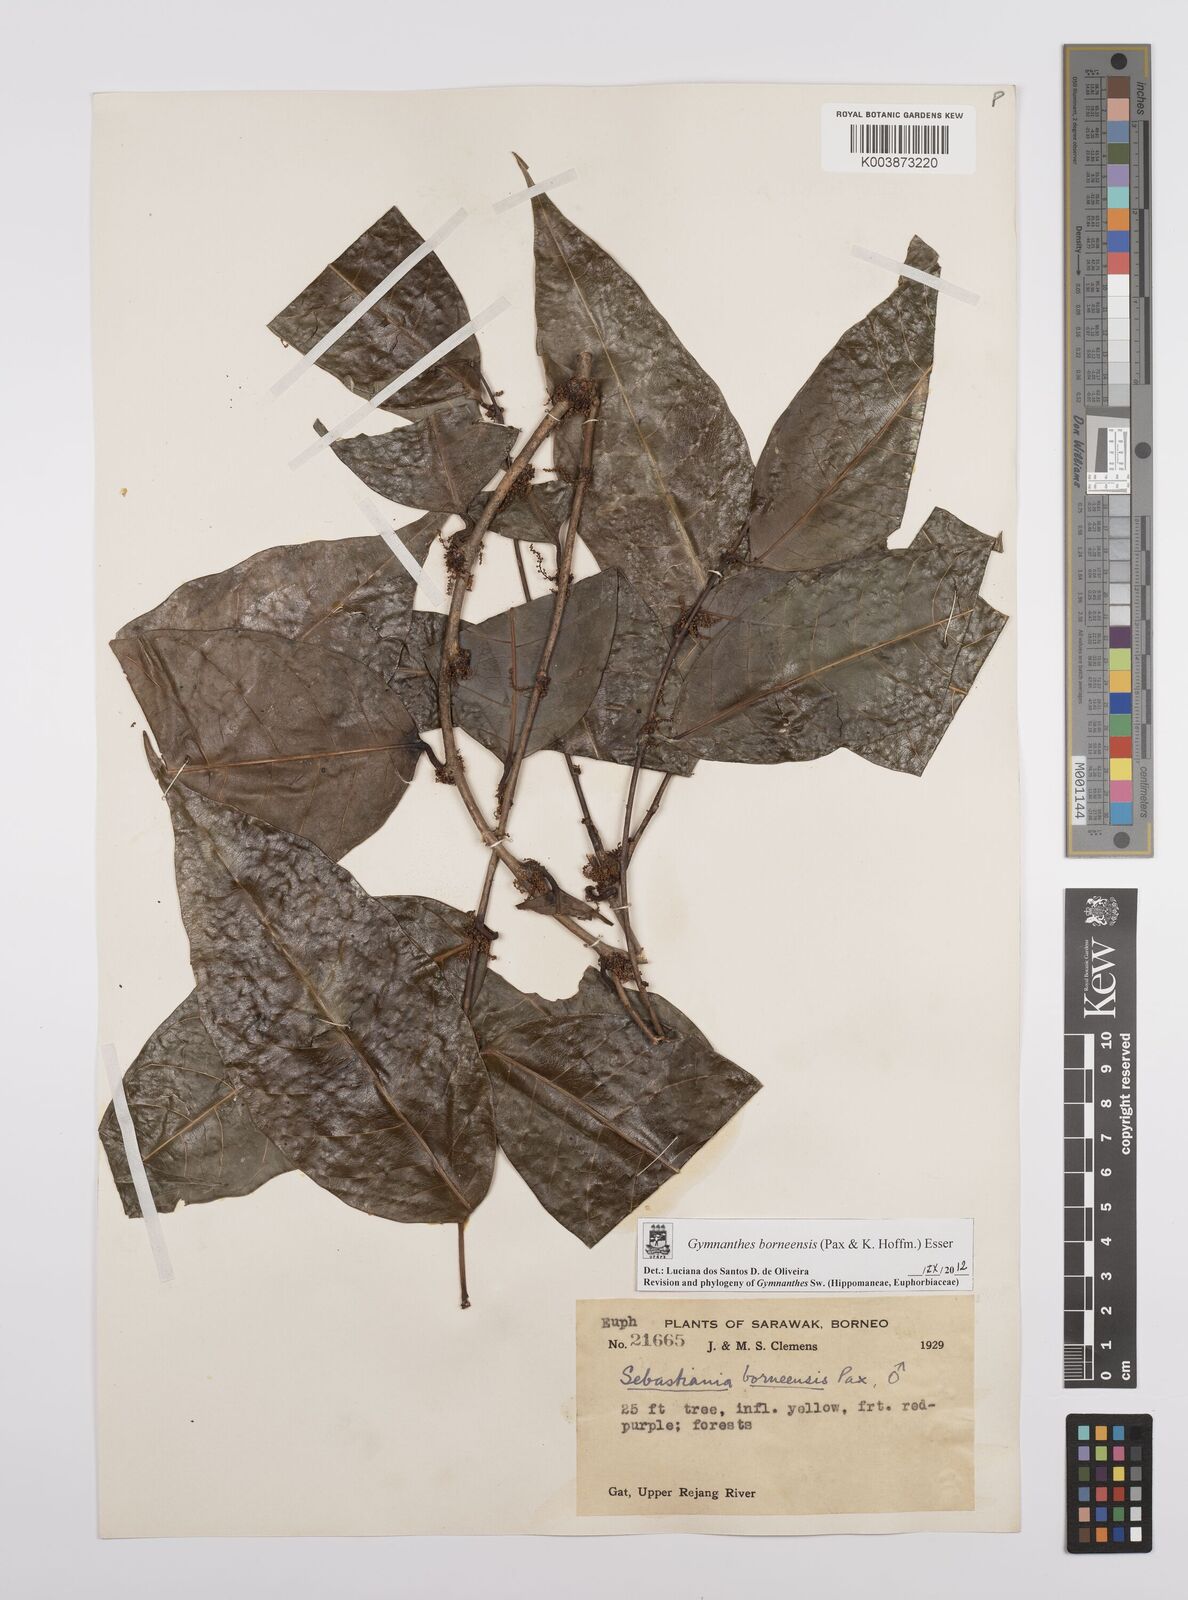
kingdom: Plantae
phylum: Tracheophyta
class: Magnoliopsida
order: Malpighiales
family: Euphorbiaceae
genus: Gymnanthes
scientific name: Gymnanthes borneensis
